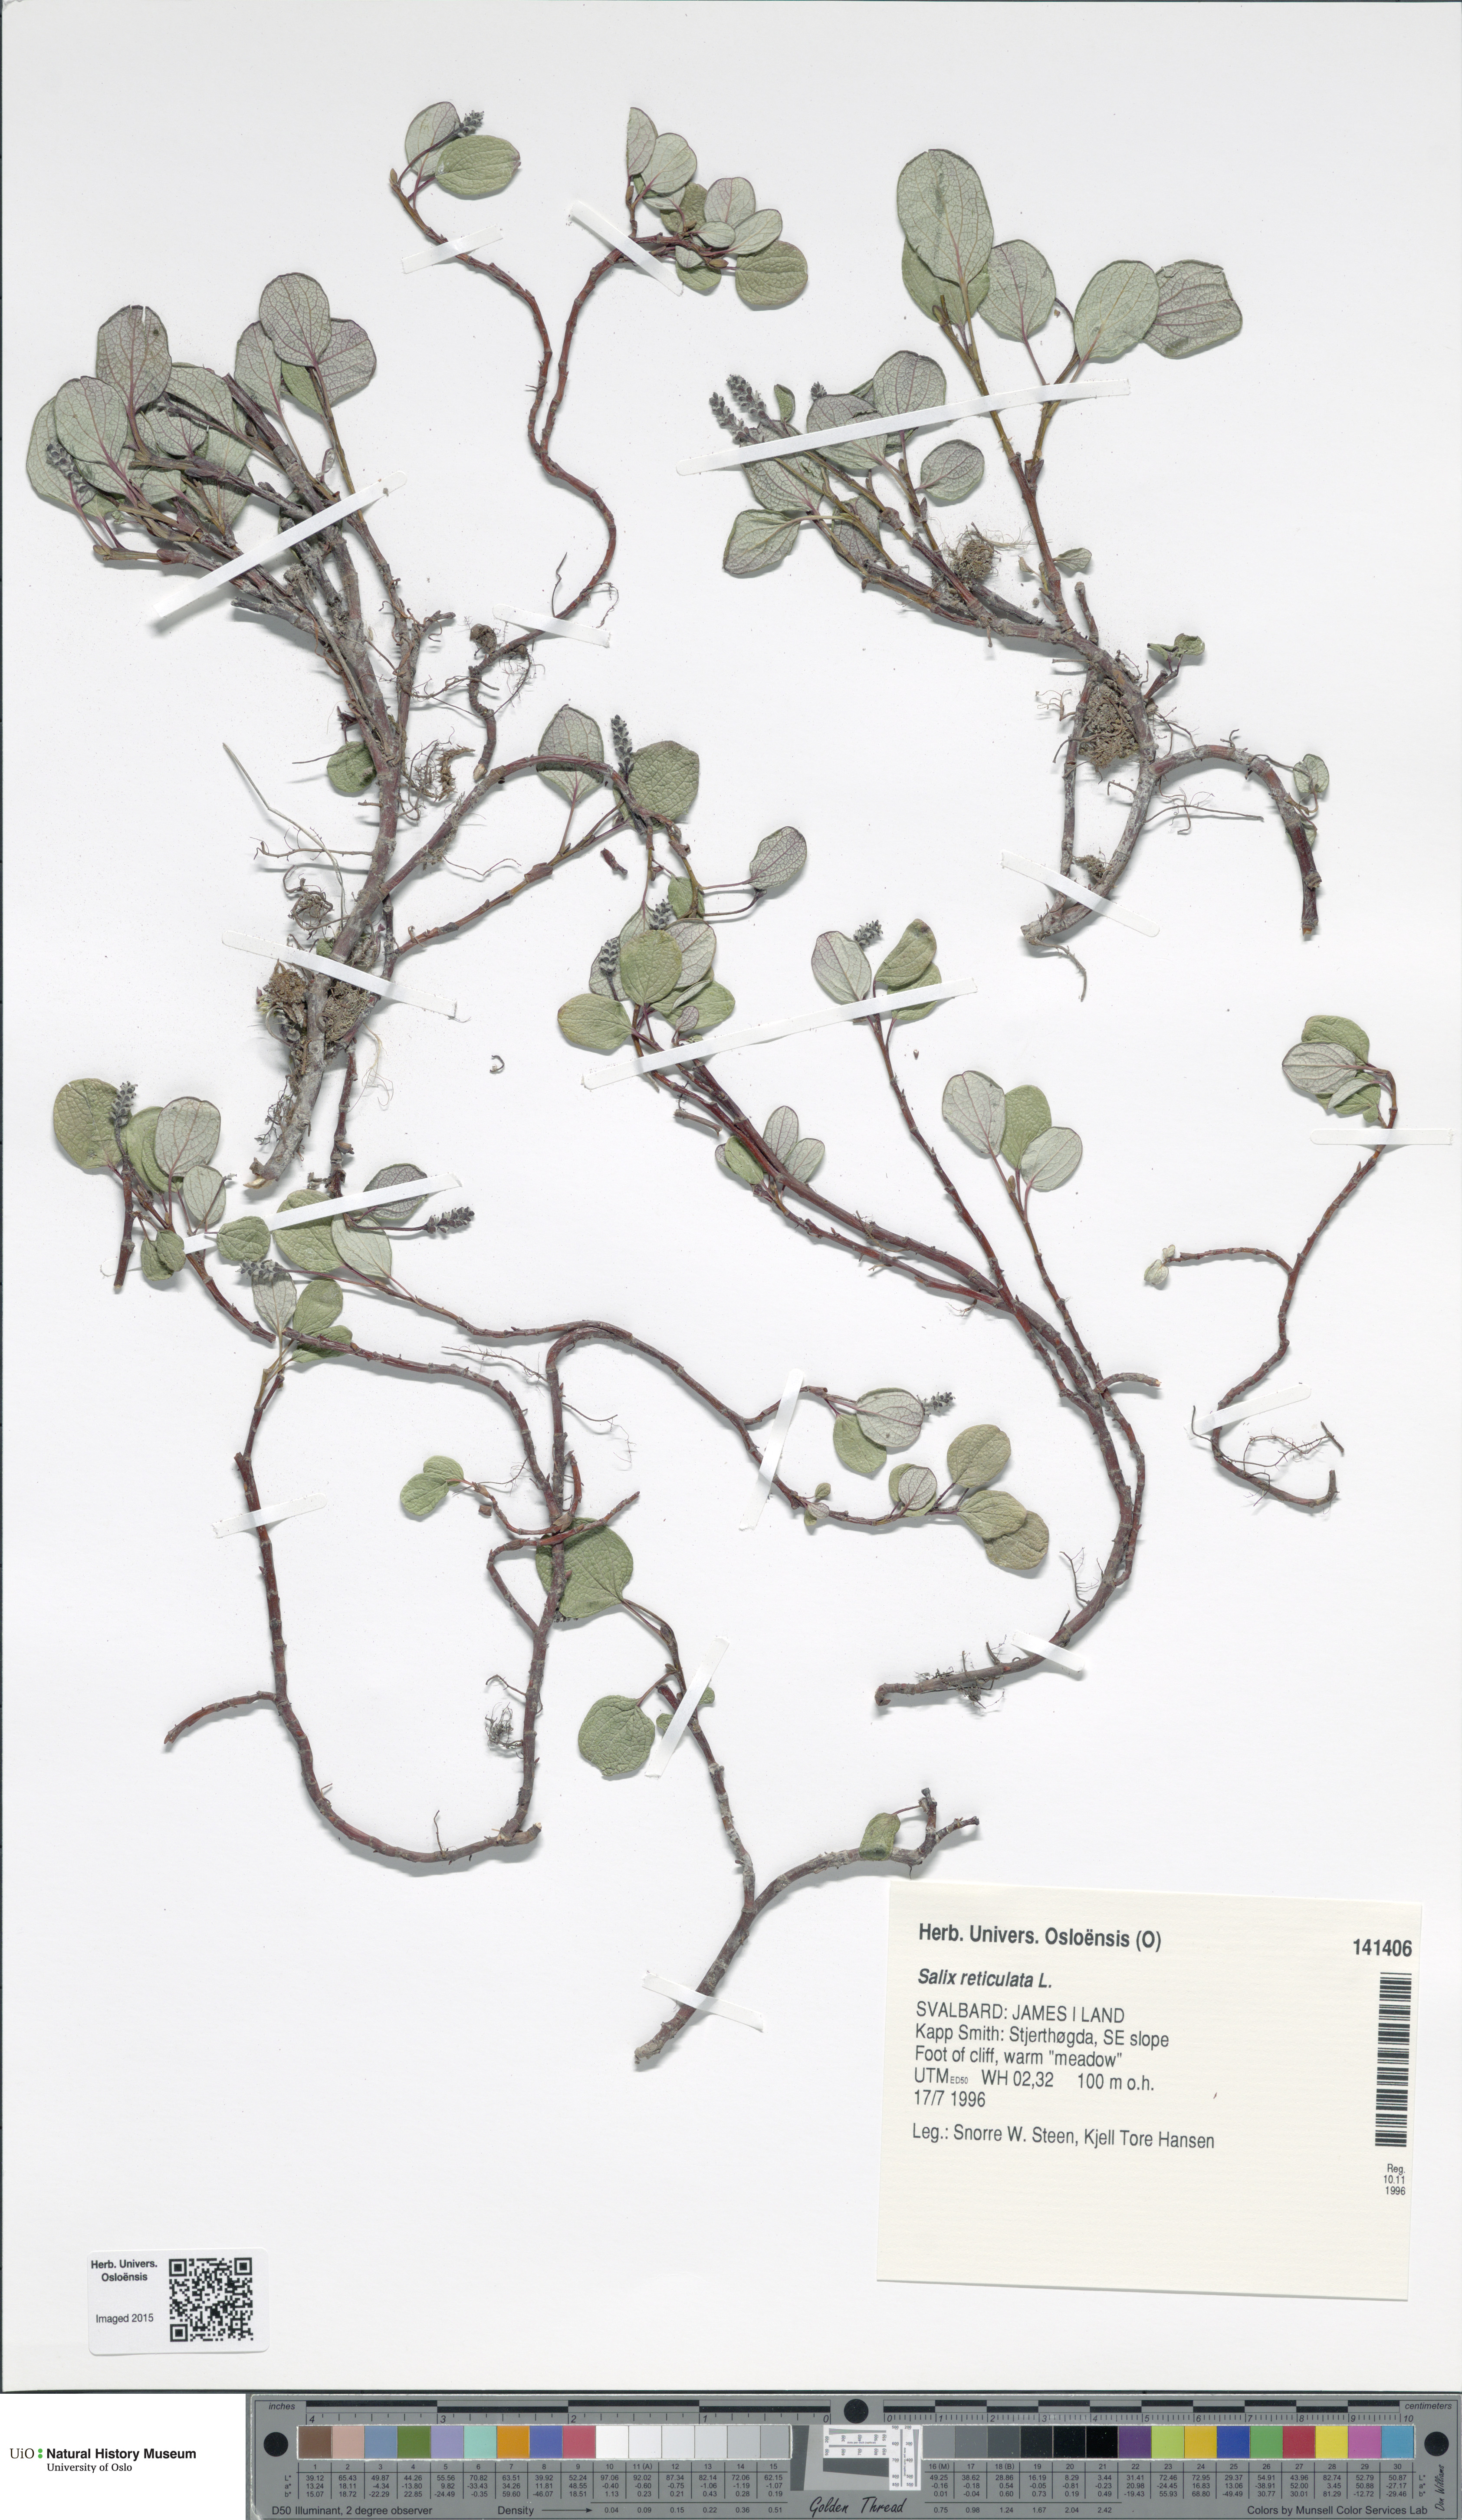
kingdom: Plantae
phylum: Tracheophyta
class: Magnoliopsida
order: Malpighiales
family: Salicaceae
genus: Salix
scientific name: Salix reticulata
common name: Net-leaved willow
